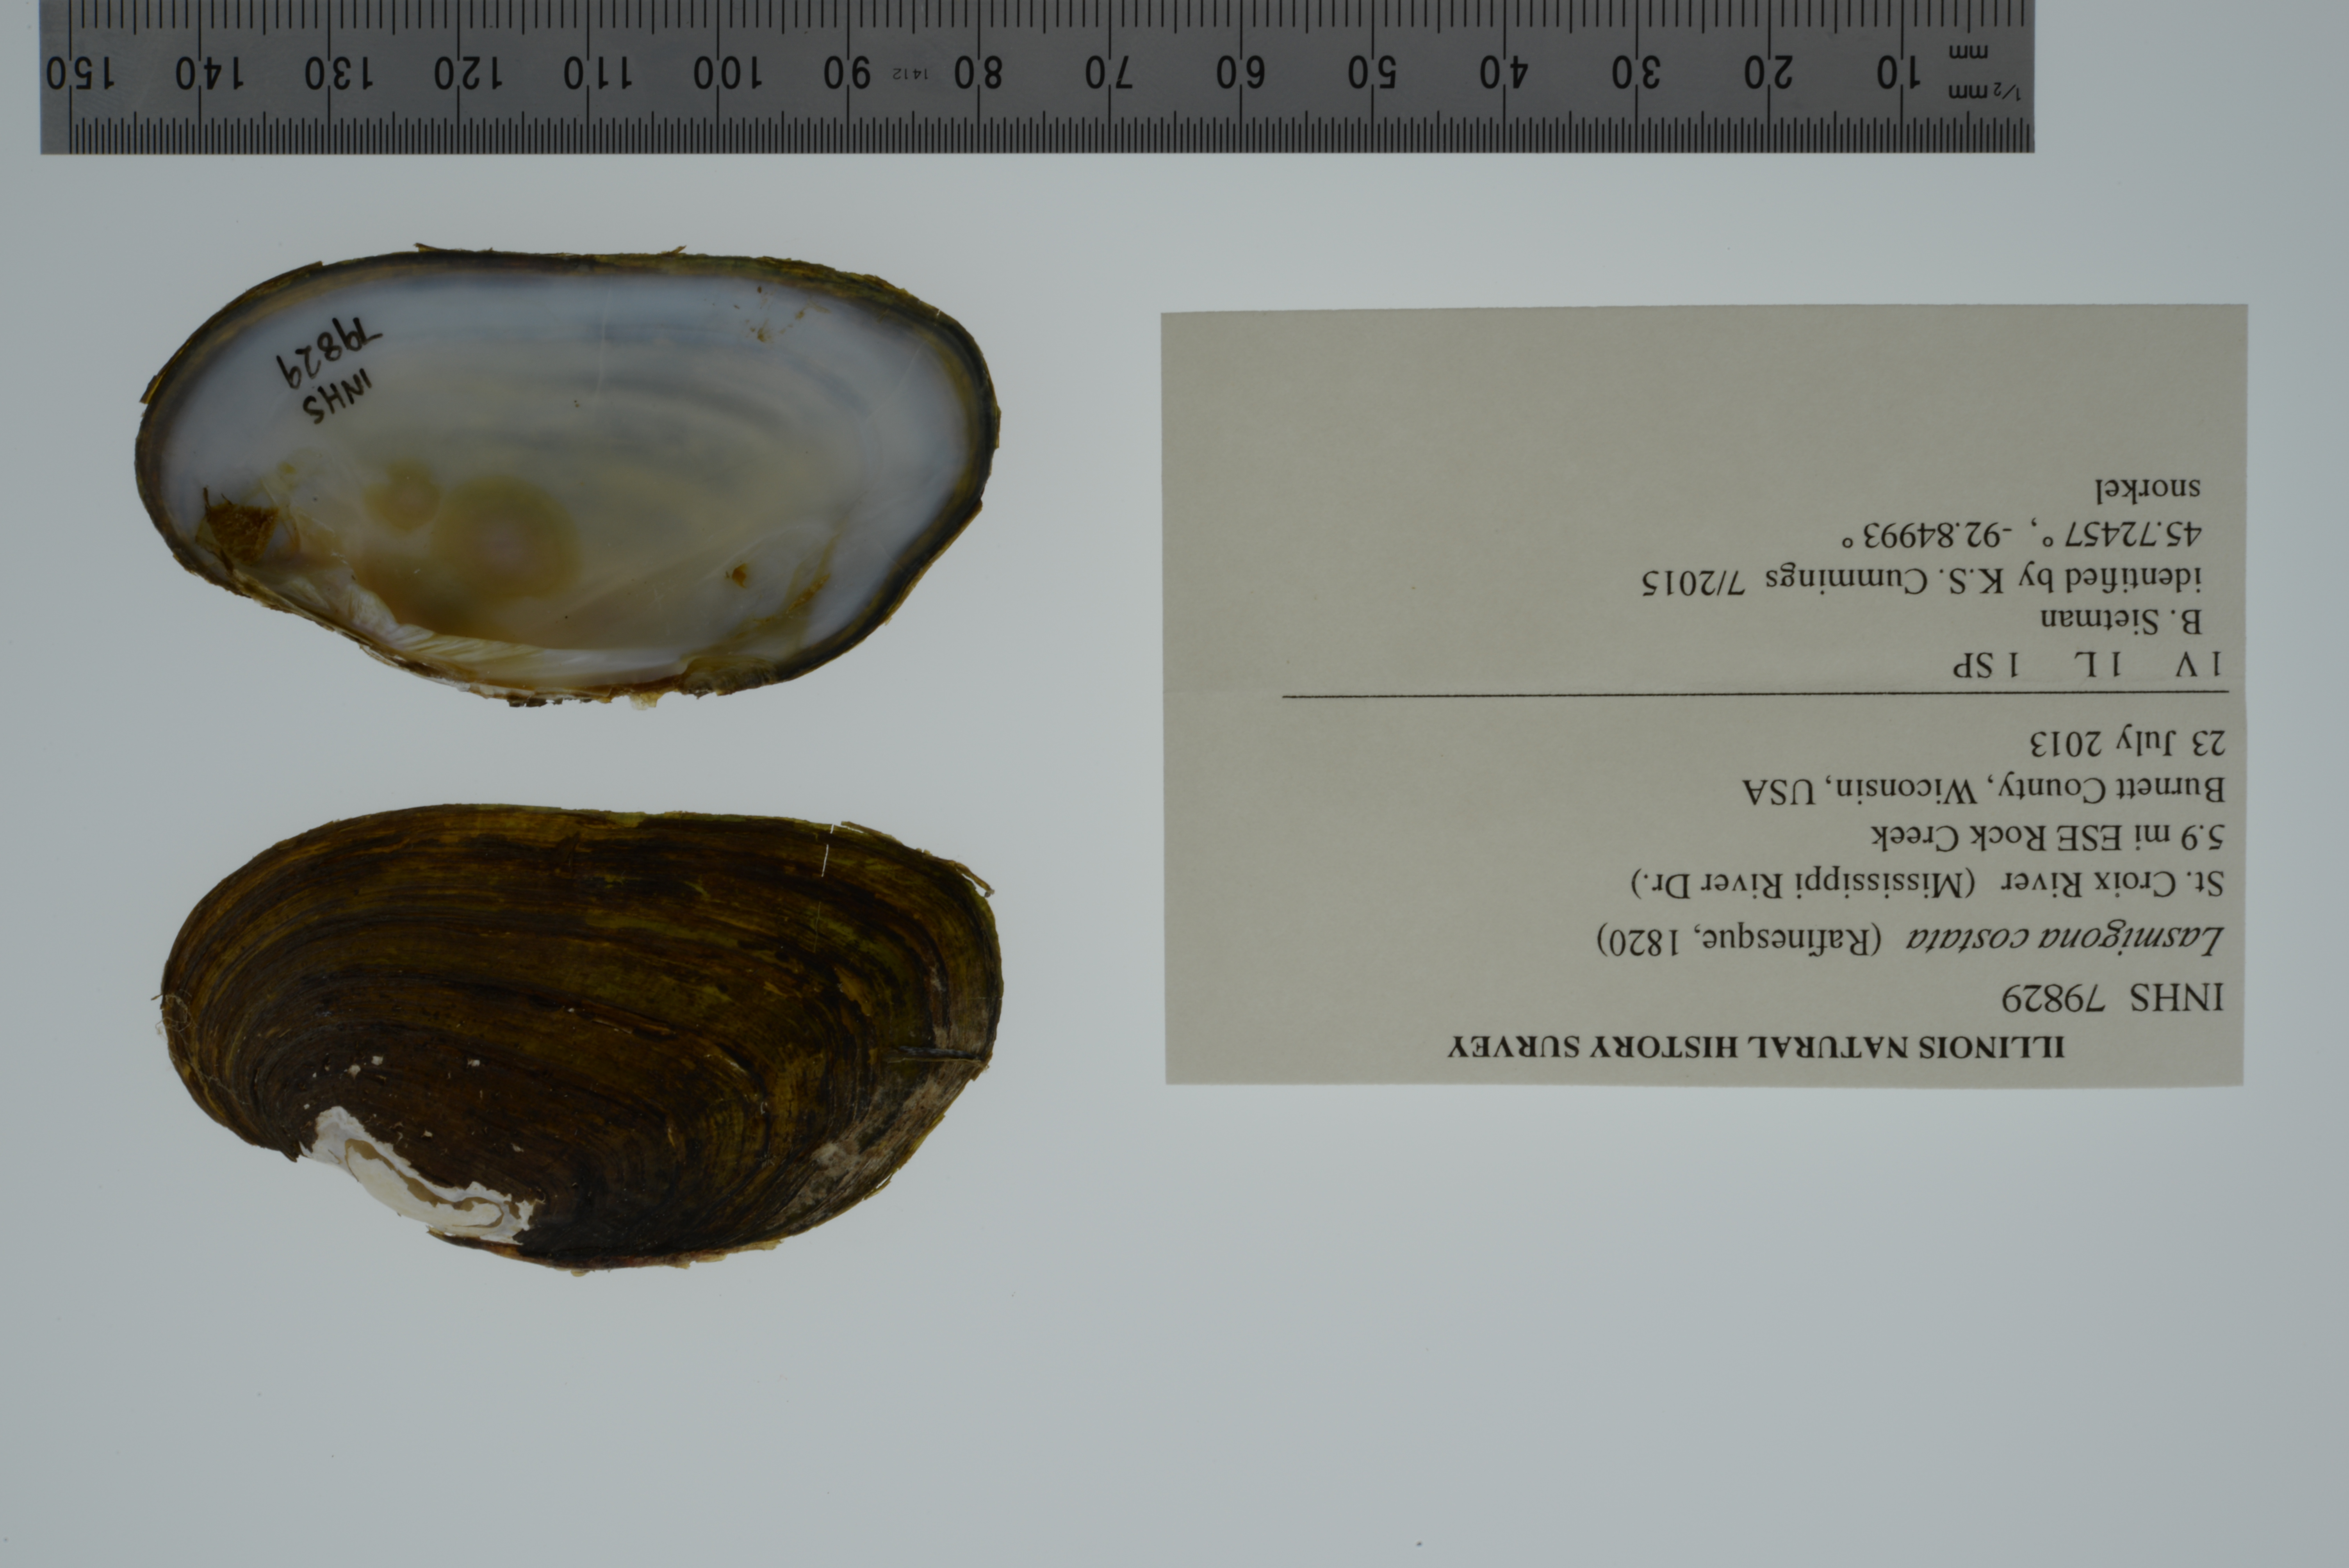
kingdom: Animalia
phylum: Mollusca
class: Bivalvia
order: Unionida
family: Unionidae
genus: Lasmigona
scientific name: Lasmigona costata
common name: Flutedshell
